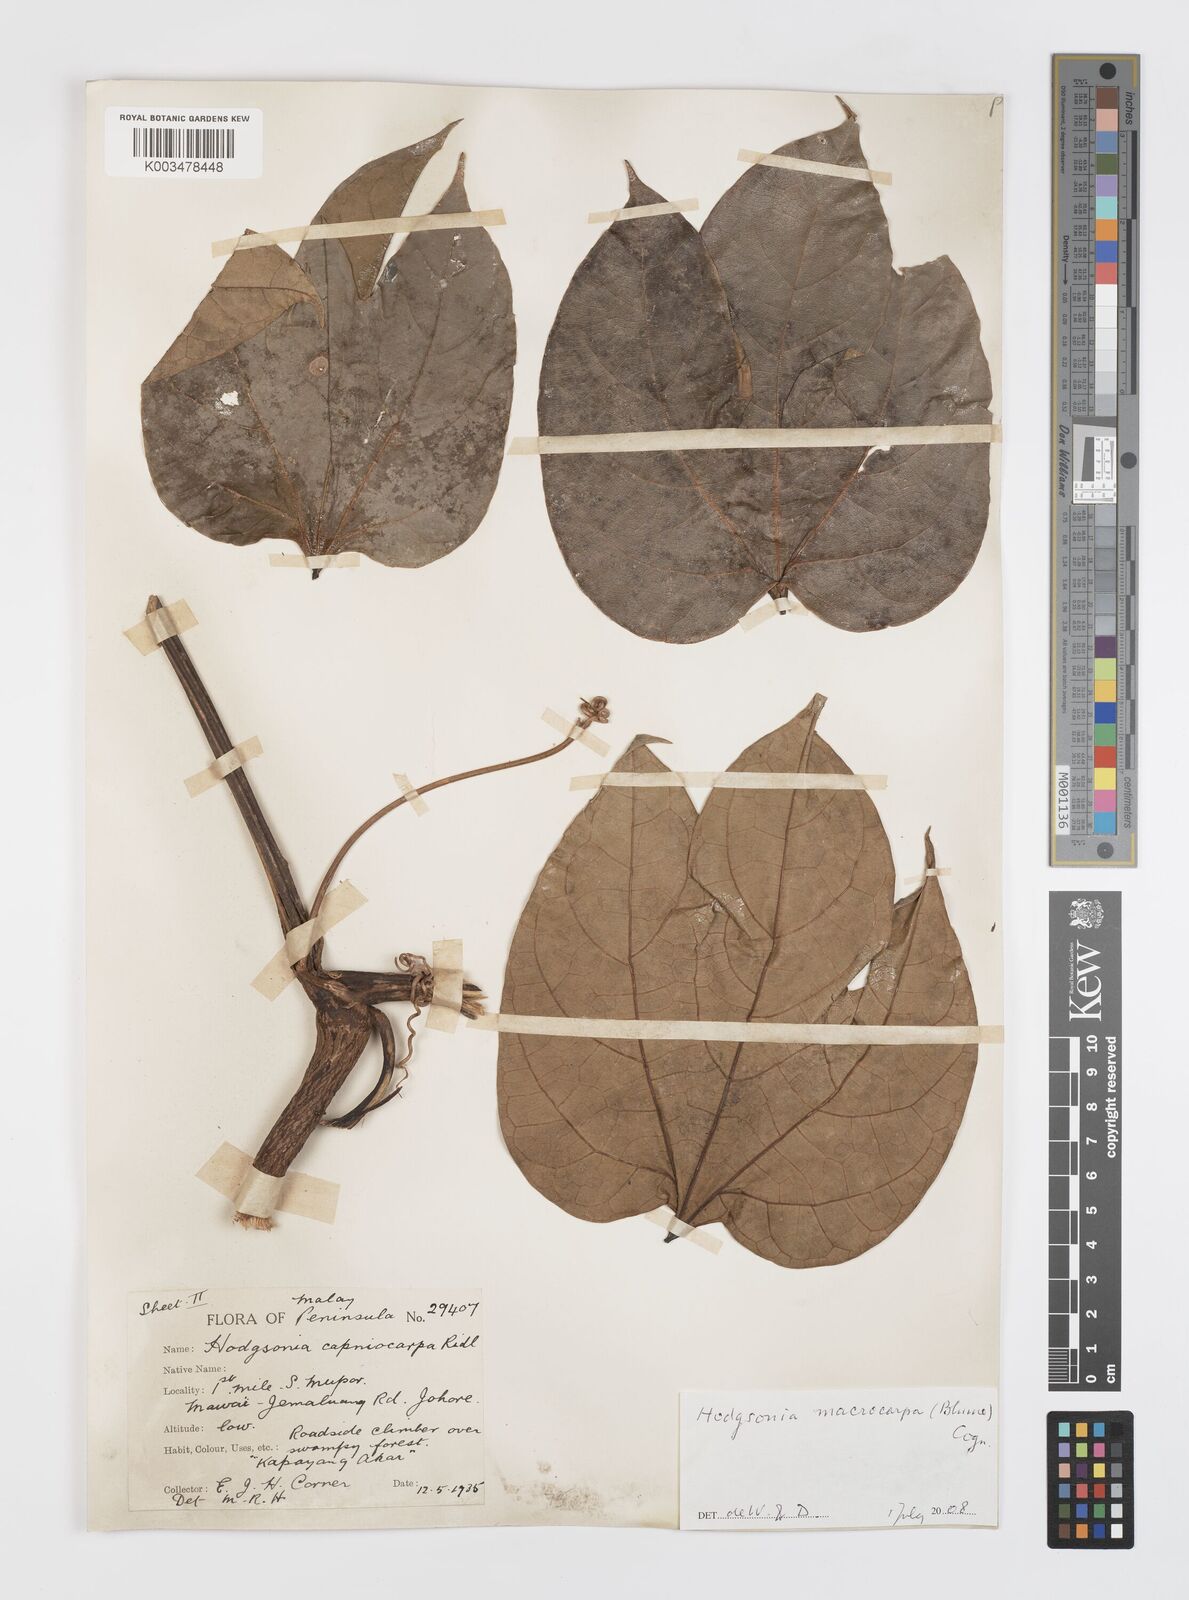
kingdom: Plantae
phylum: Tracheophyta
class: Magnoliopsida
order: Cucurbitales
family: Cucurbitaceae
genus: Hodgsonia
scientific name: Hodgsonia macrocarpa
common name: Chinese lardfruit
